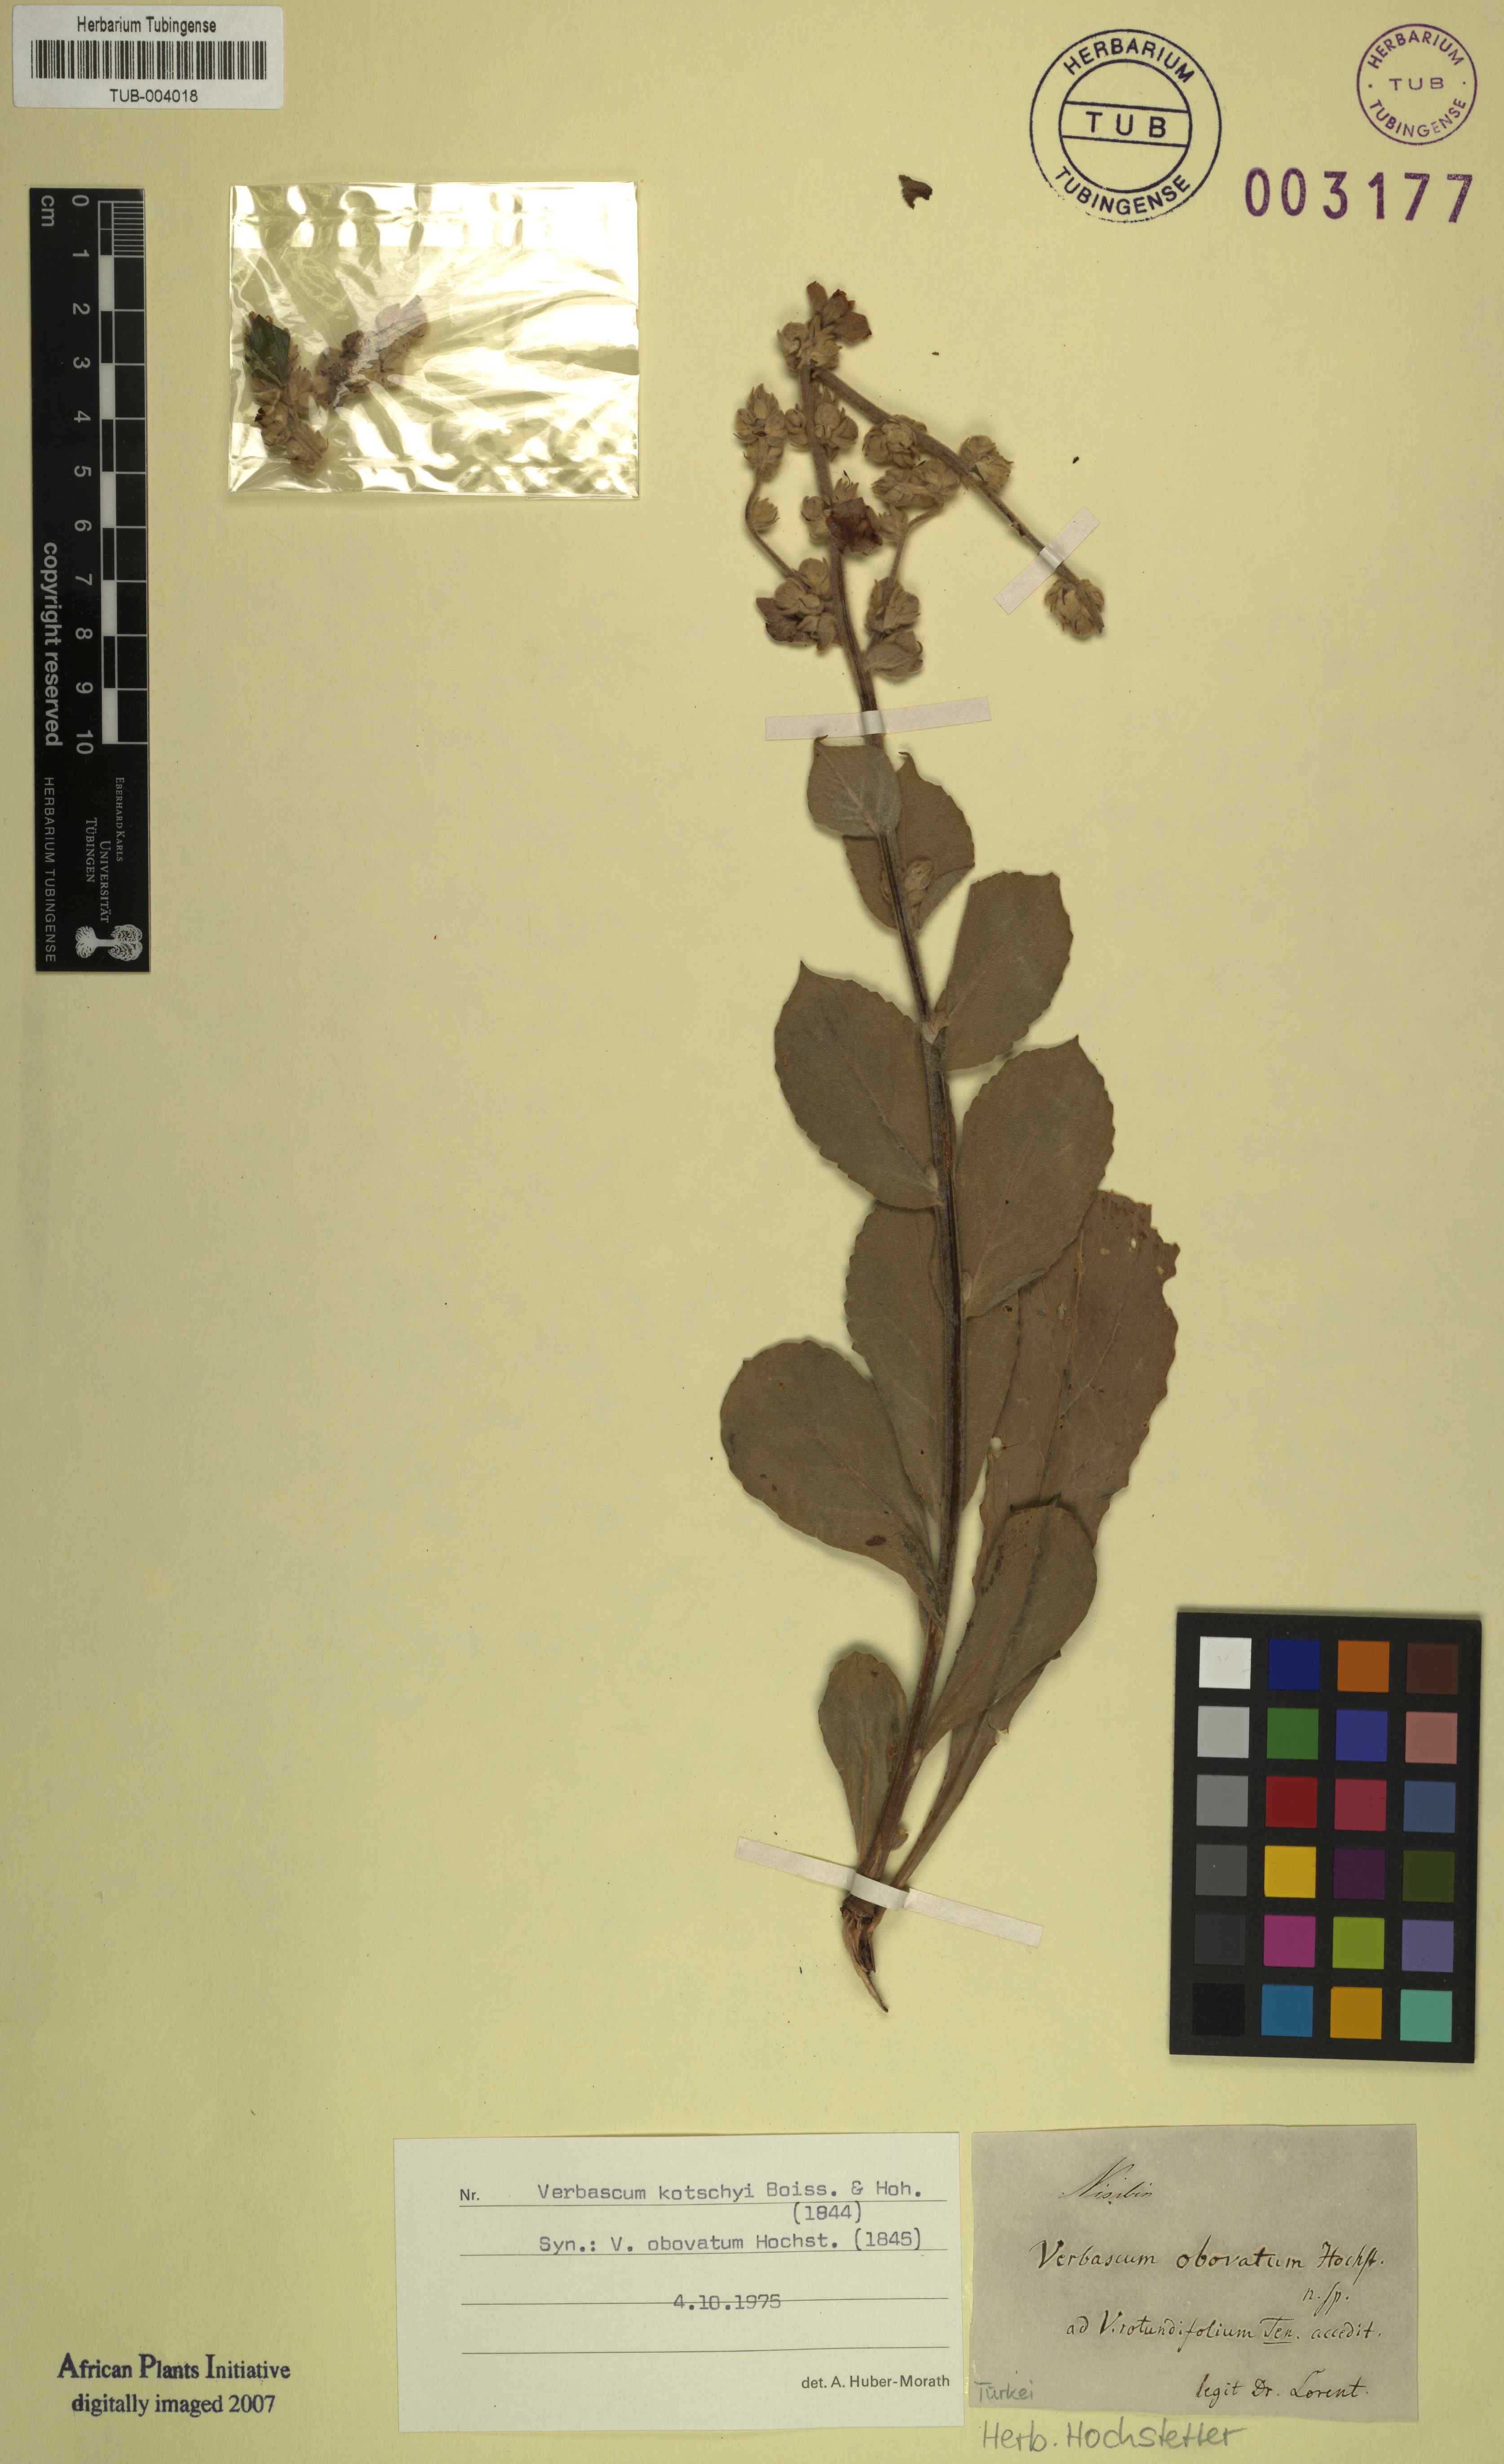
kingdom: Plantae
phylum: Tracheophyta
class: Magnoliopsida
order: Lamiales
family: Scrophulariaceae
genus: Verbascum
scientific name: Verbascum kotschyi
